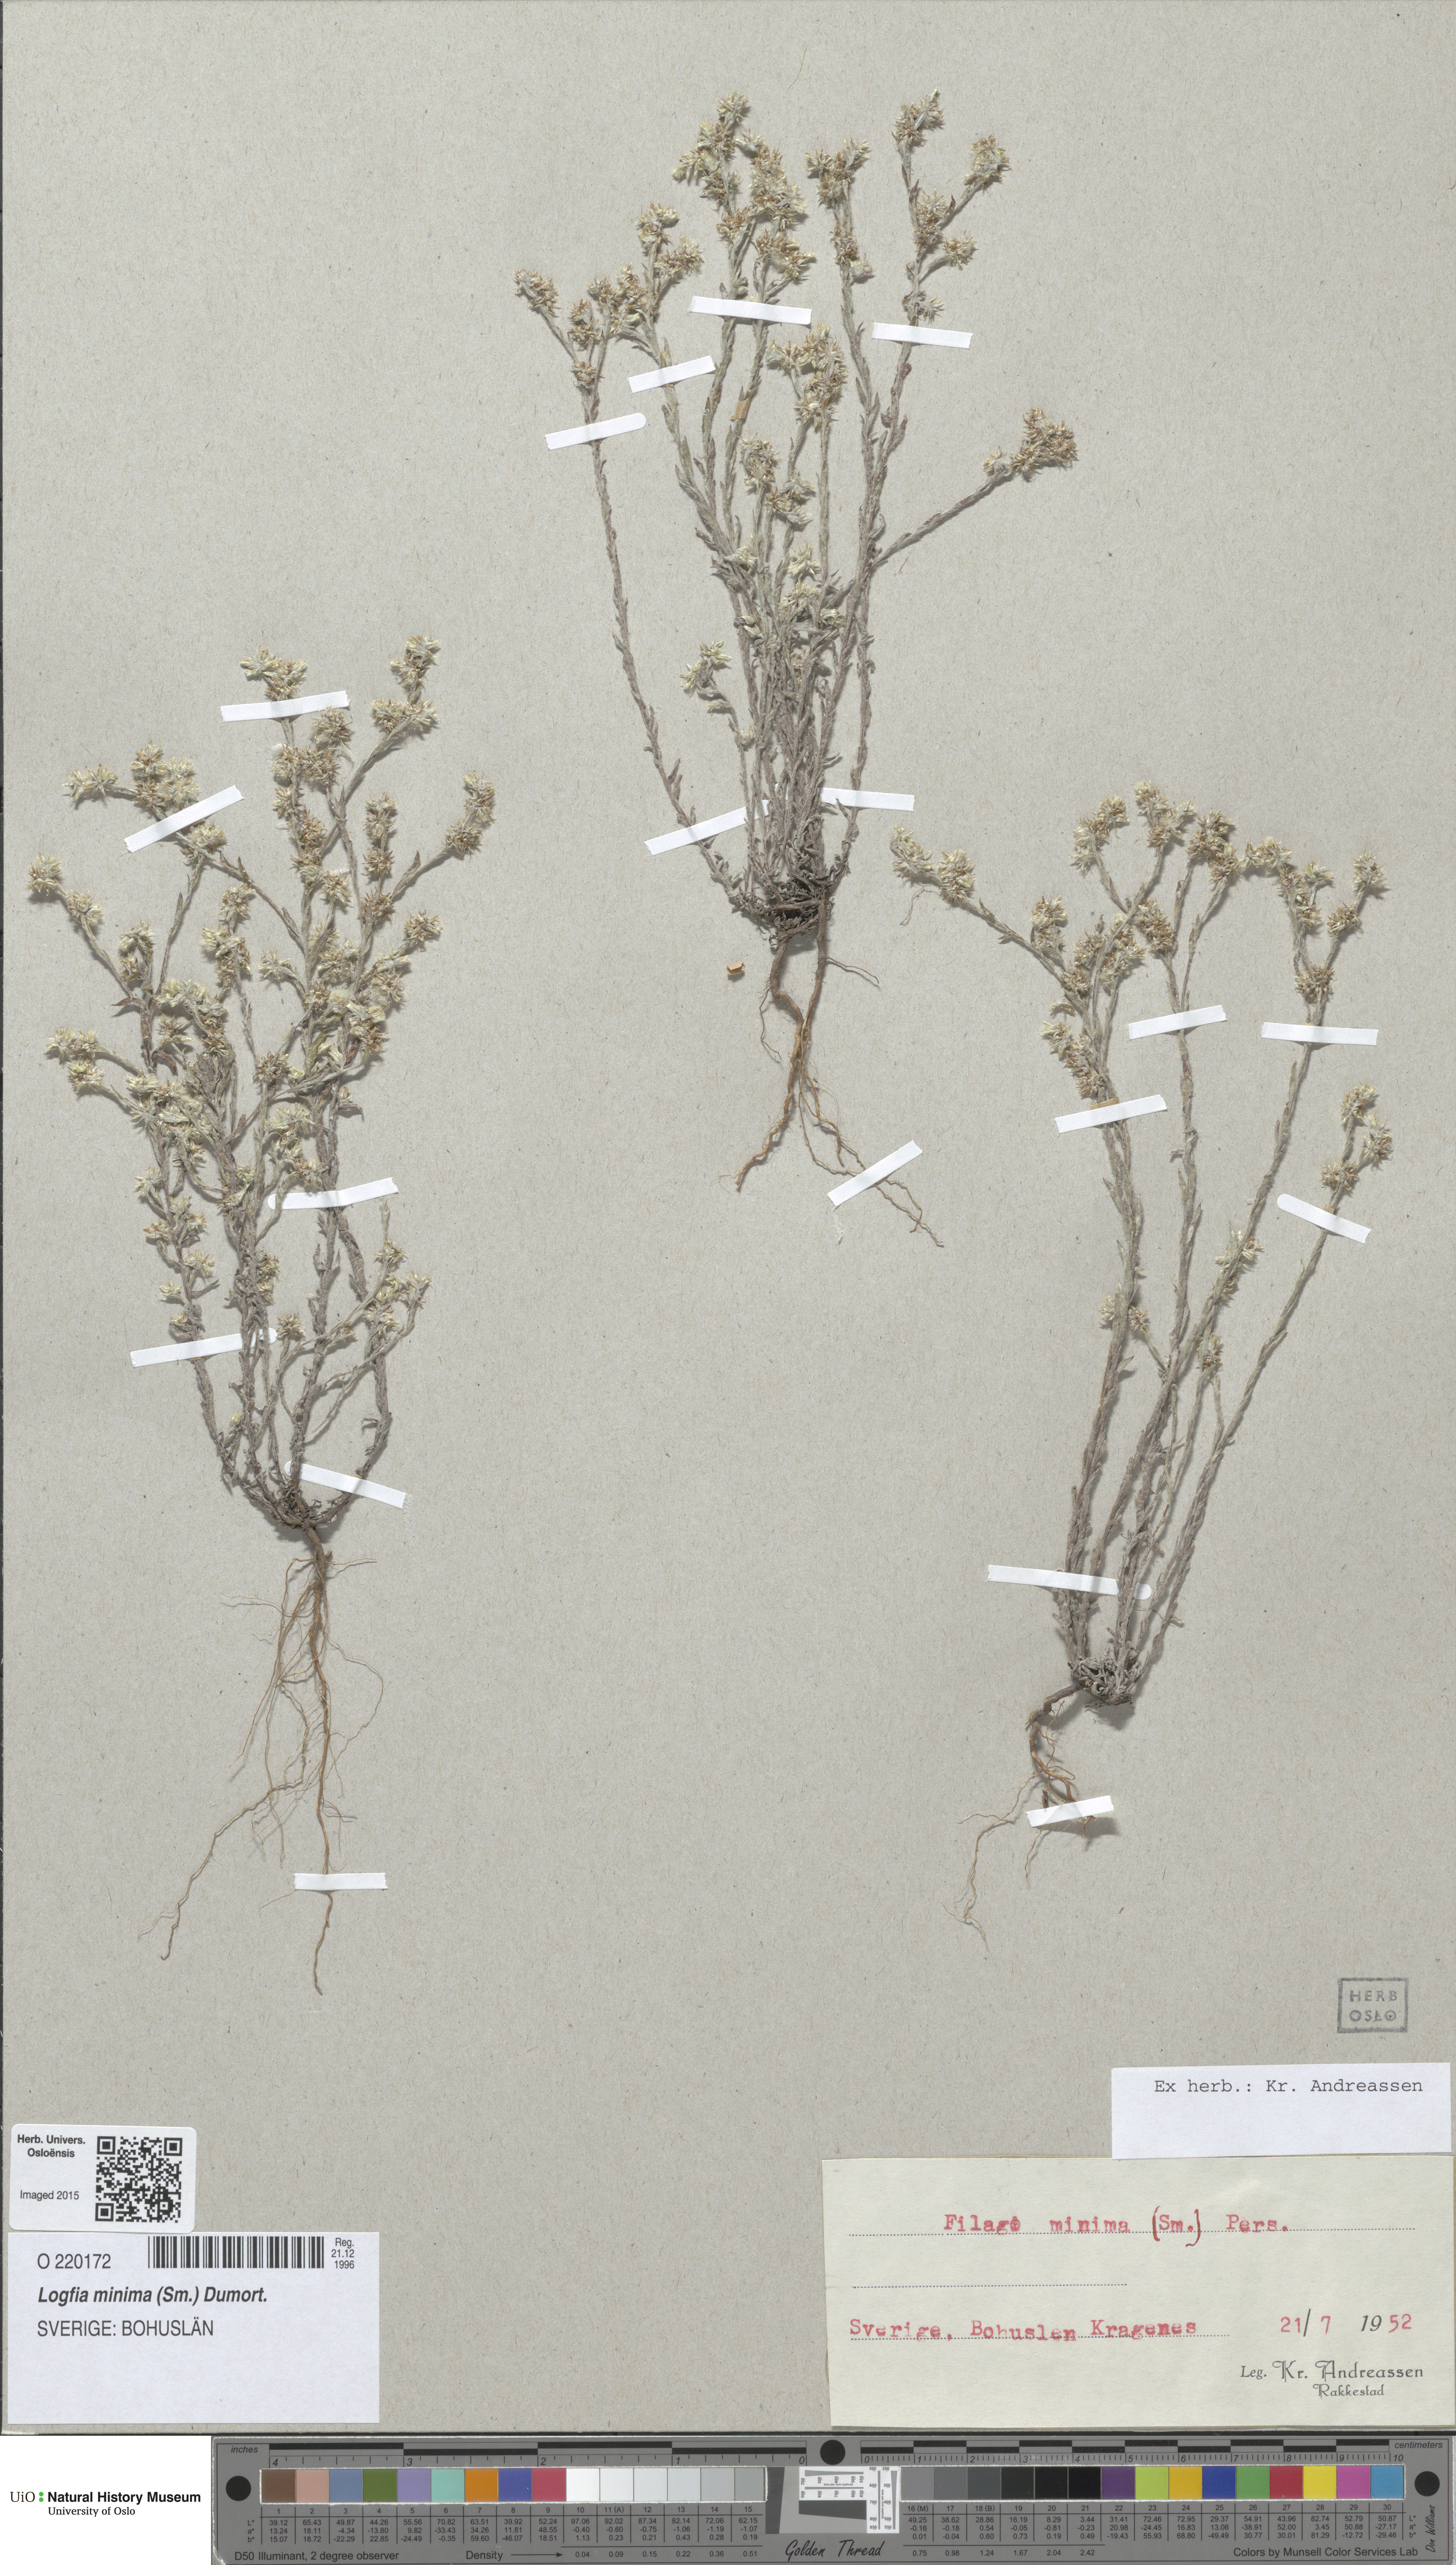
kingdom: Plantae
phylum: Tracheophyta
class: Magnoliopsida
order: Asterales
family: Asteraceae
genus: Logfia
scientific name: Logfia minima
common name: Little cottonrose
